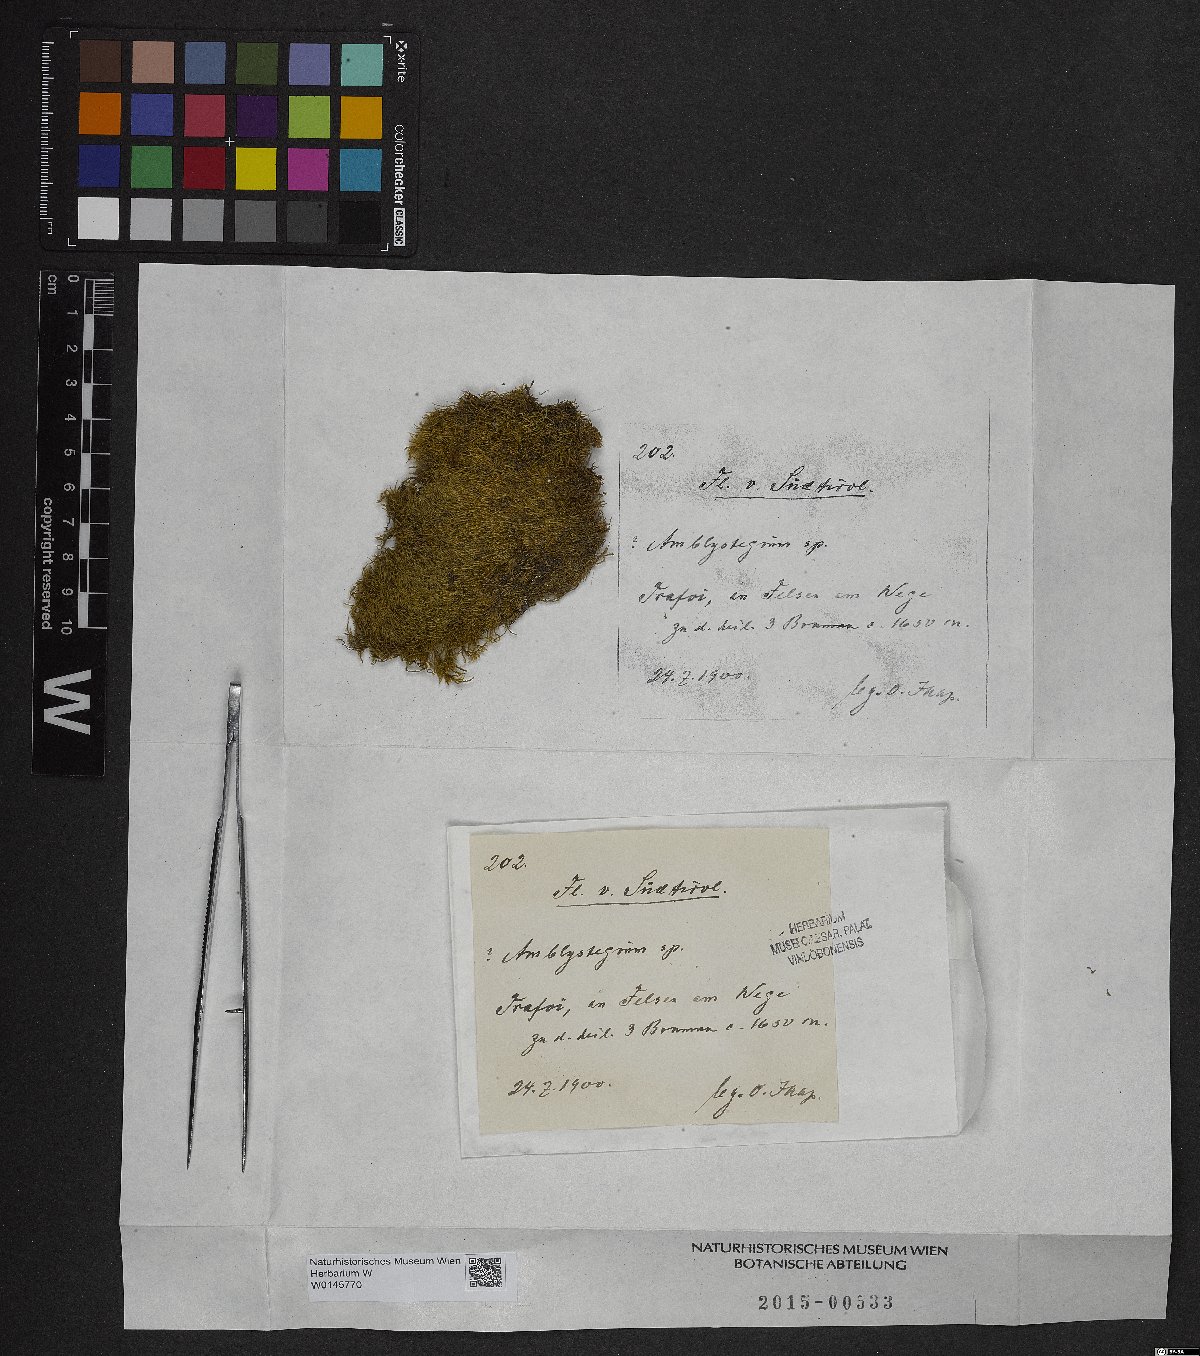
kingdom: Plantae
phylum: Bryophyta
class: Bryopsida
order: Hypnales
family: Amblystegiaceae
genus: Amblystegium
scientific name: Amblystegium
